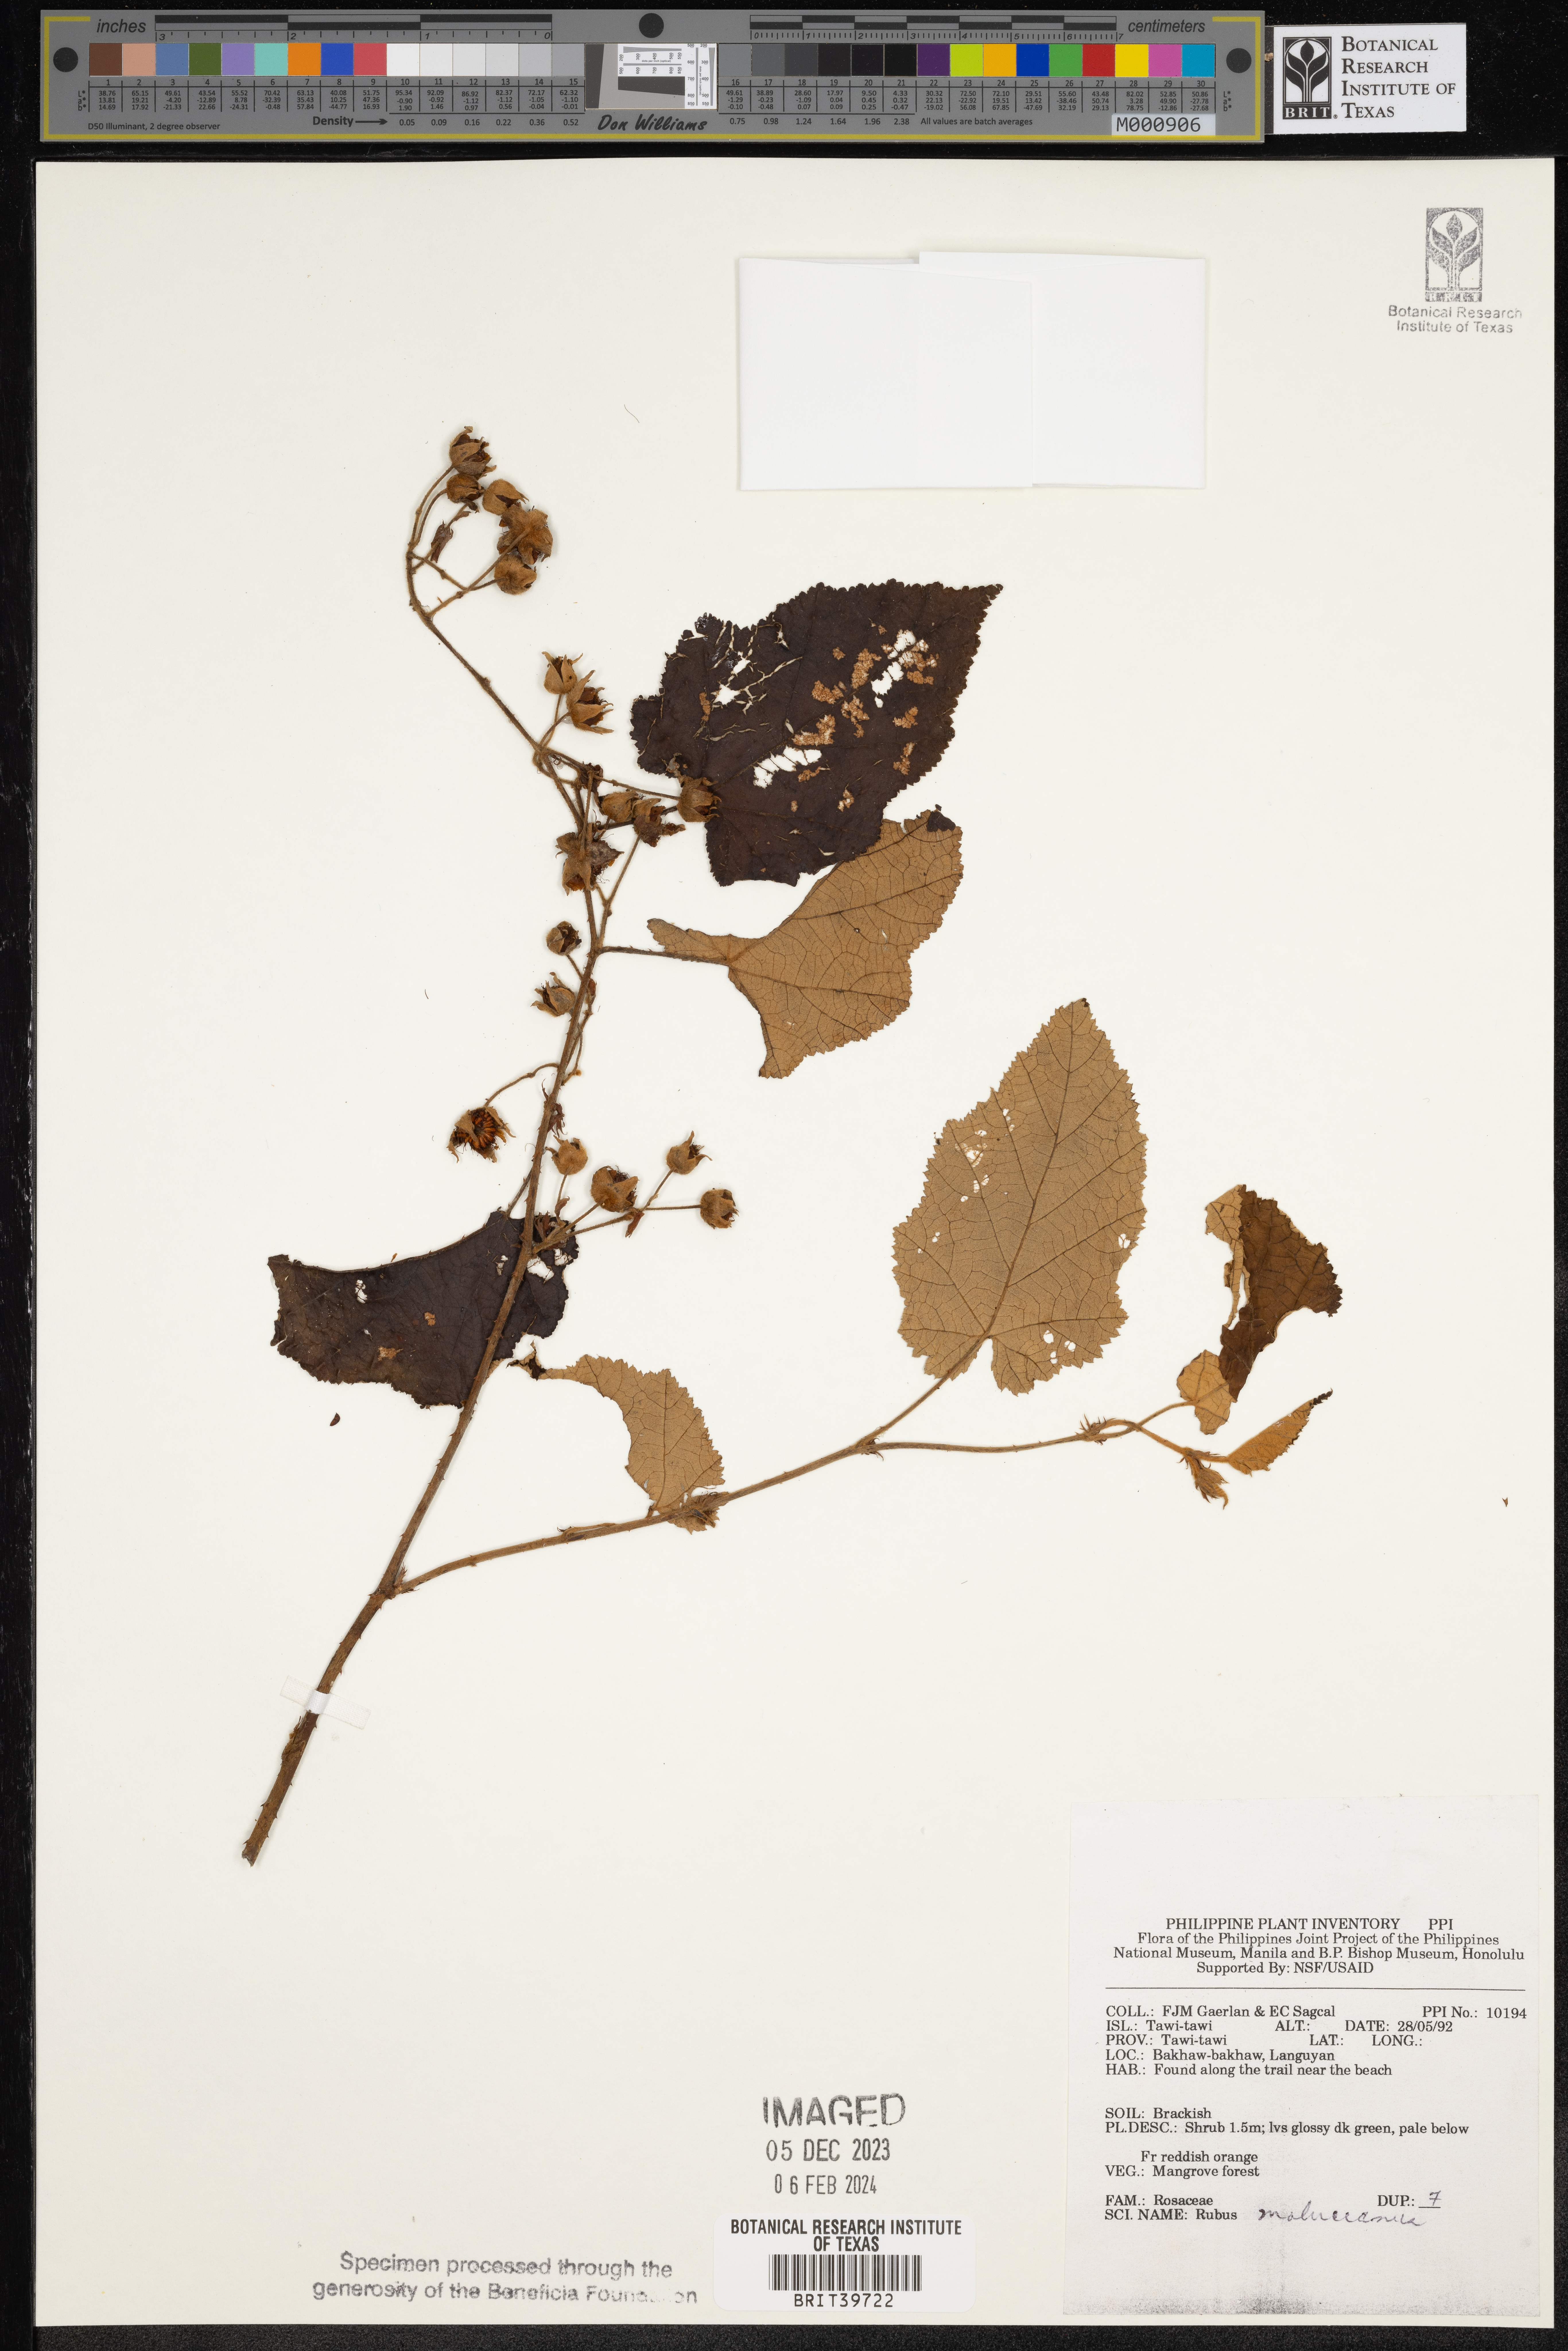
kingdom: Plantae
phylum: Tracheophyta
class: Magnoliopsida
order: Rosales
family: Rosaceae
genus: Rubus
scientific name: Rubus moluccanus
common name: Wild raspberry
